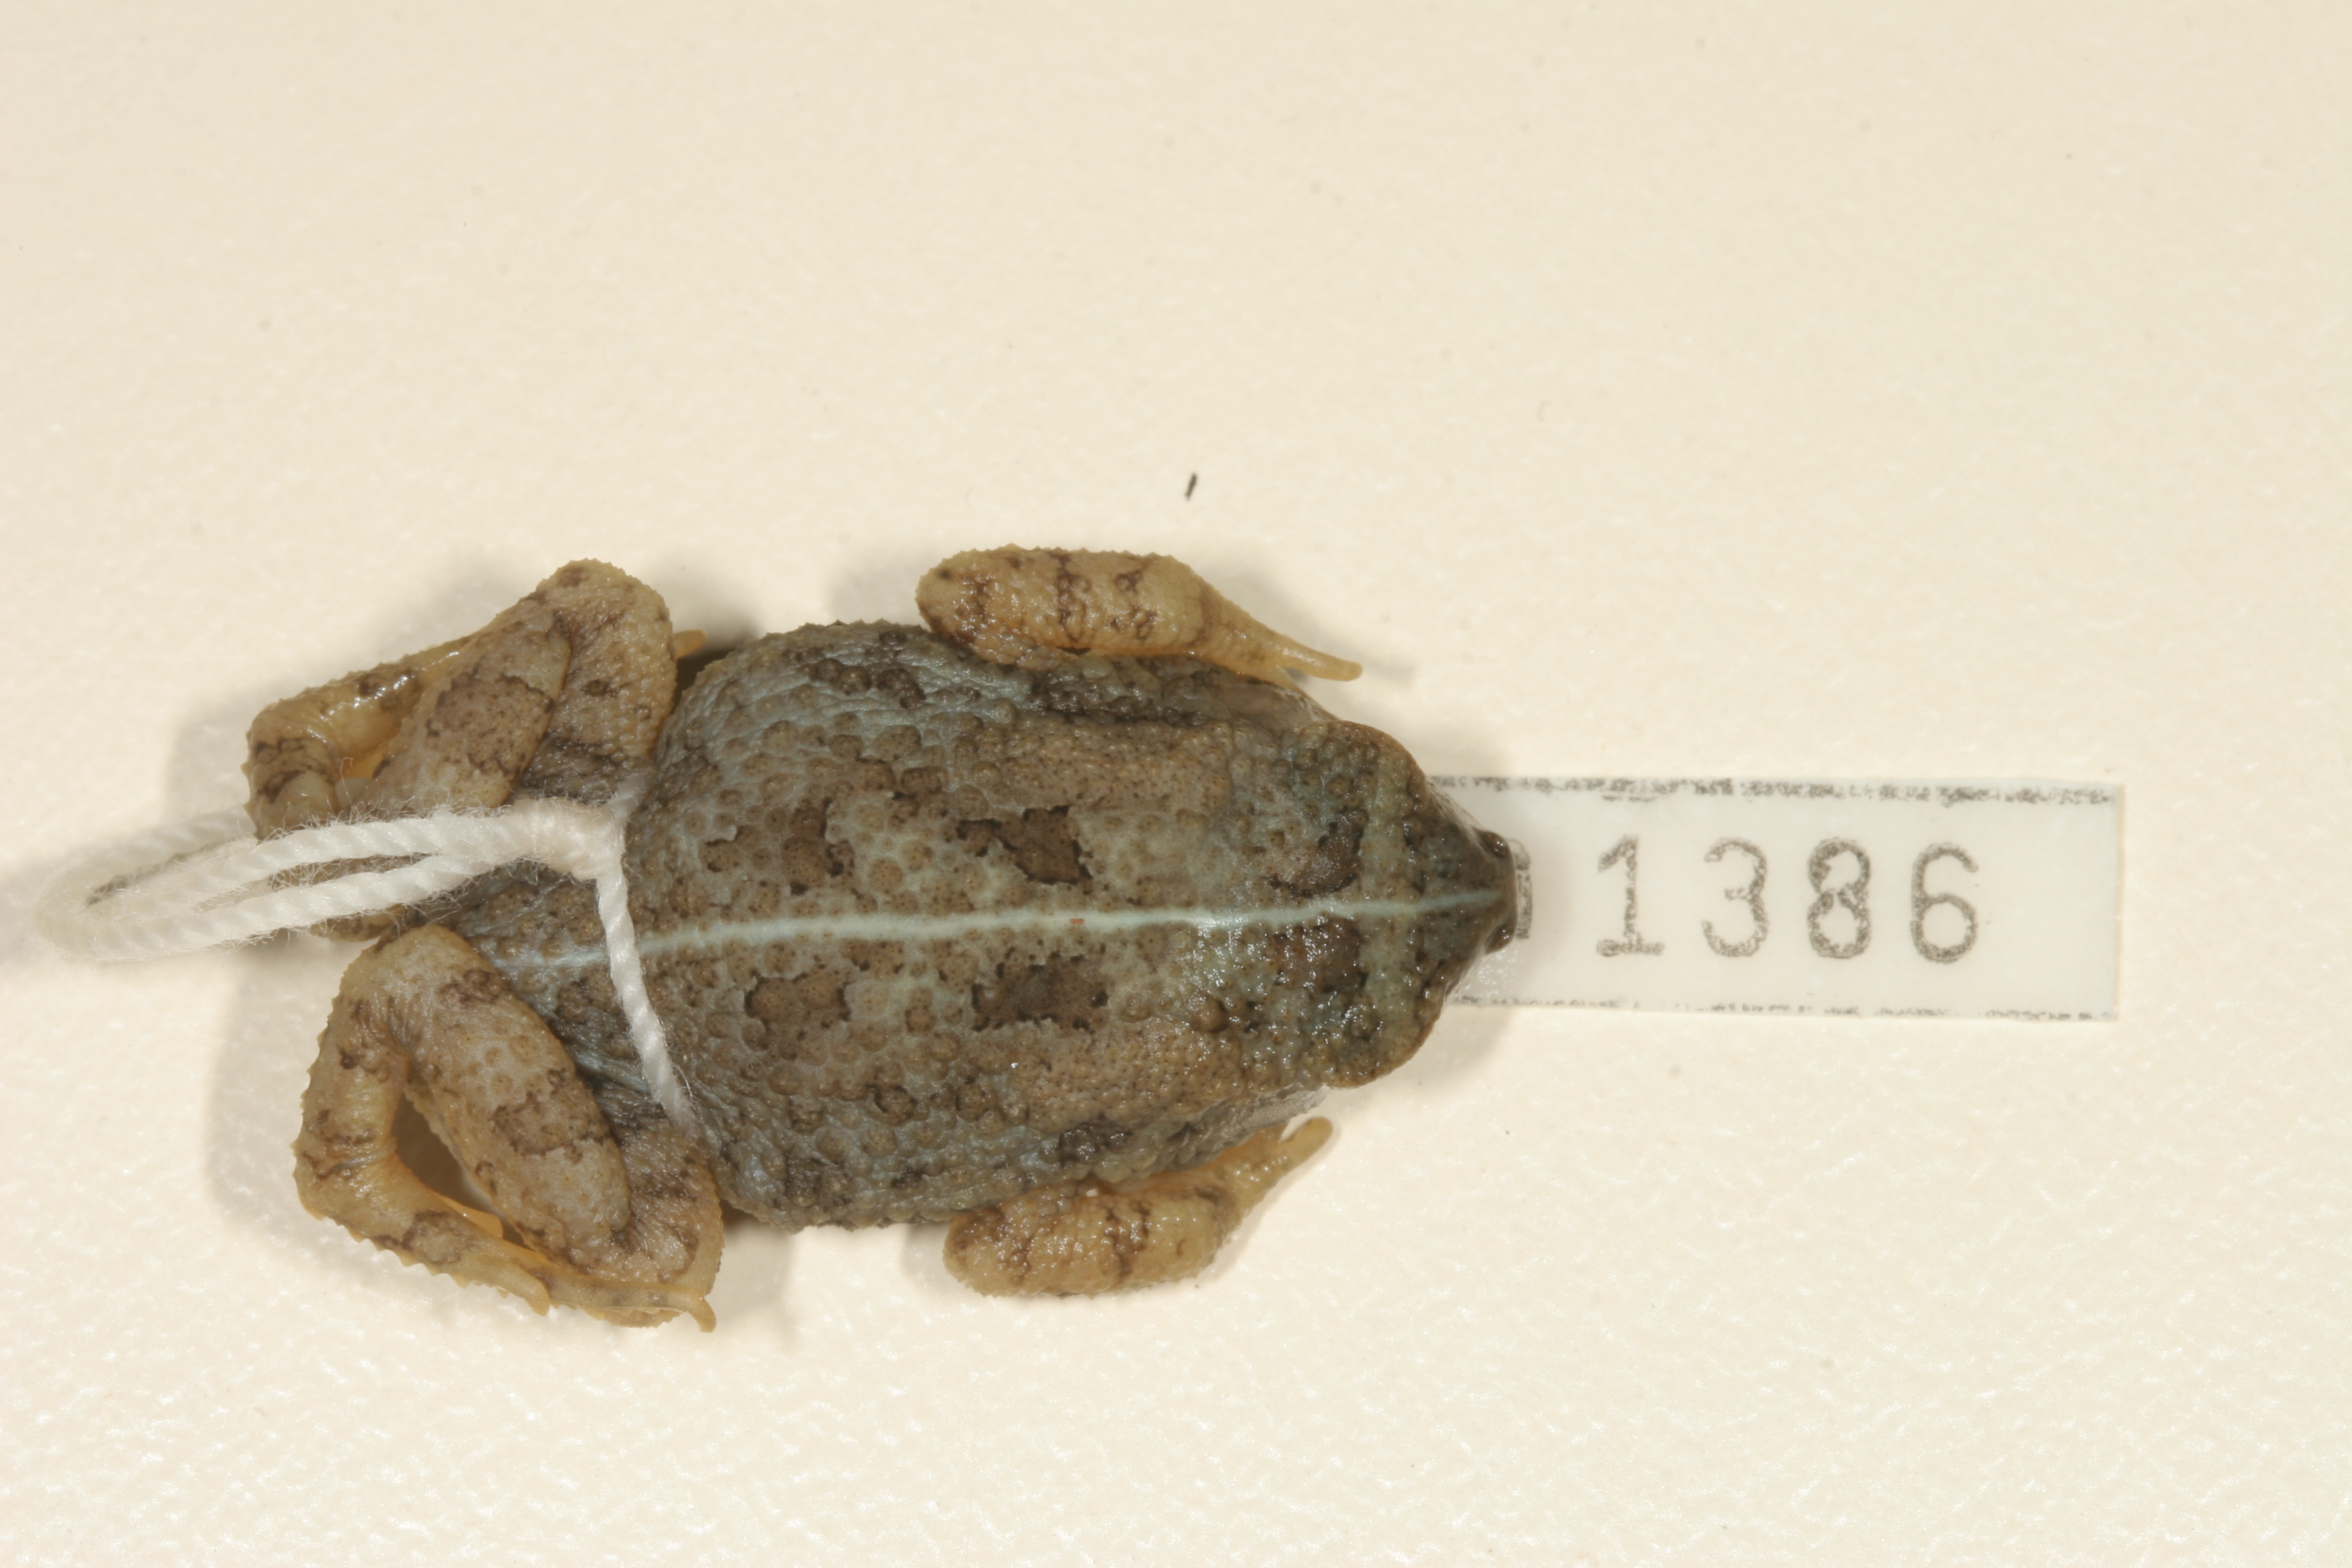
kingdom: Animalia
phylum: Chordata
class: Amphibia
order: Anura
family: Bufonidae
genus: Sclerophrys
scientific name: Sclerophrys maculata
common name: Hallowell's toad
